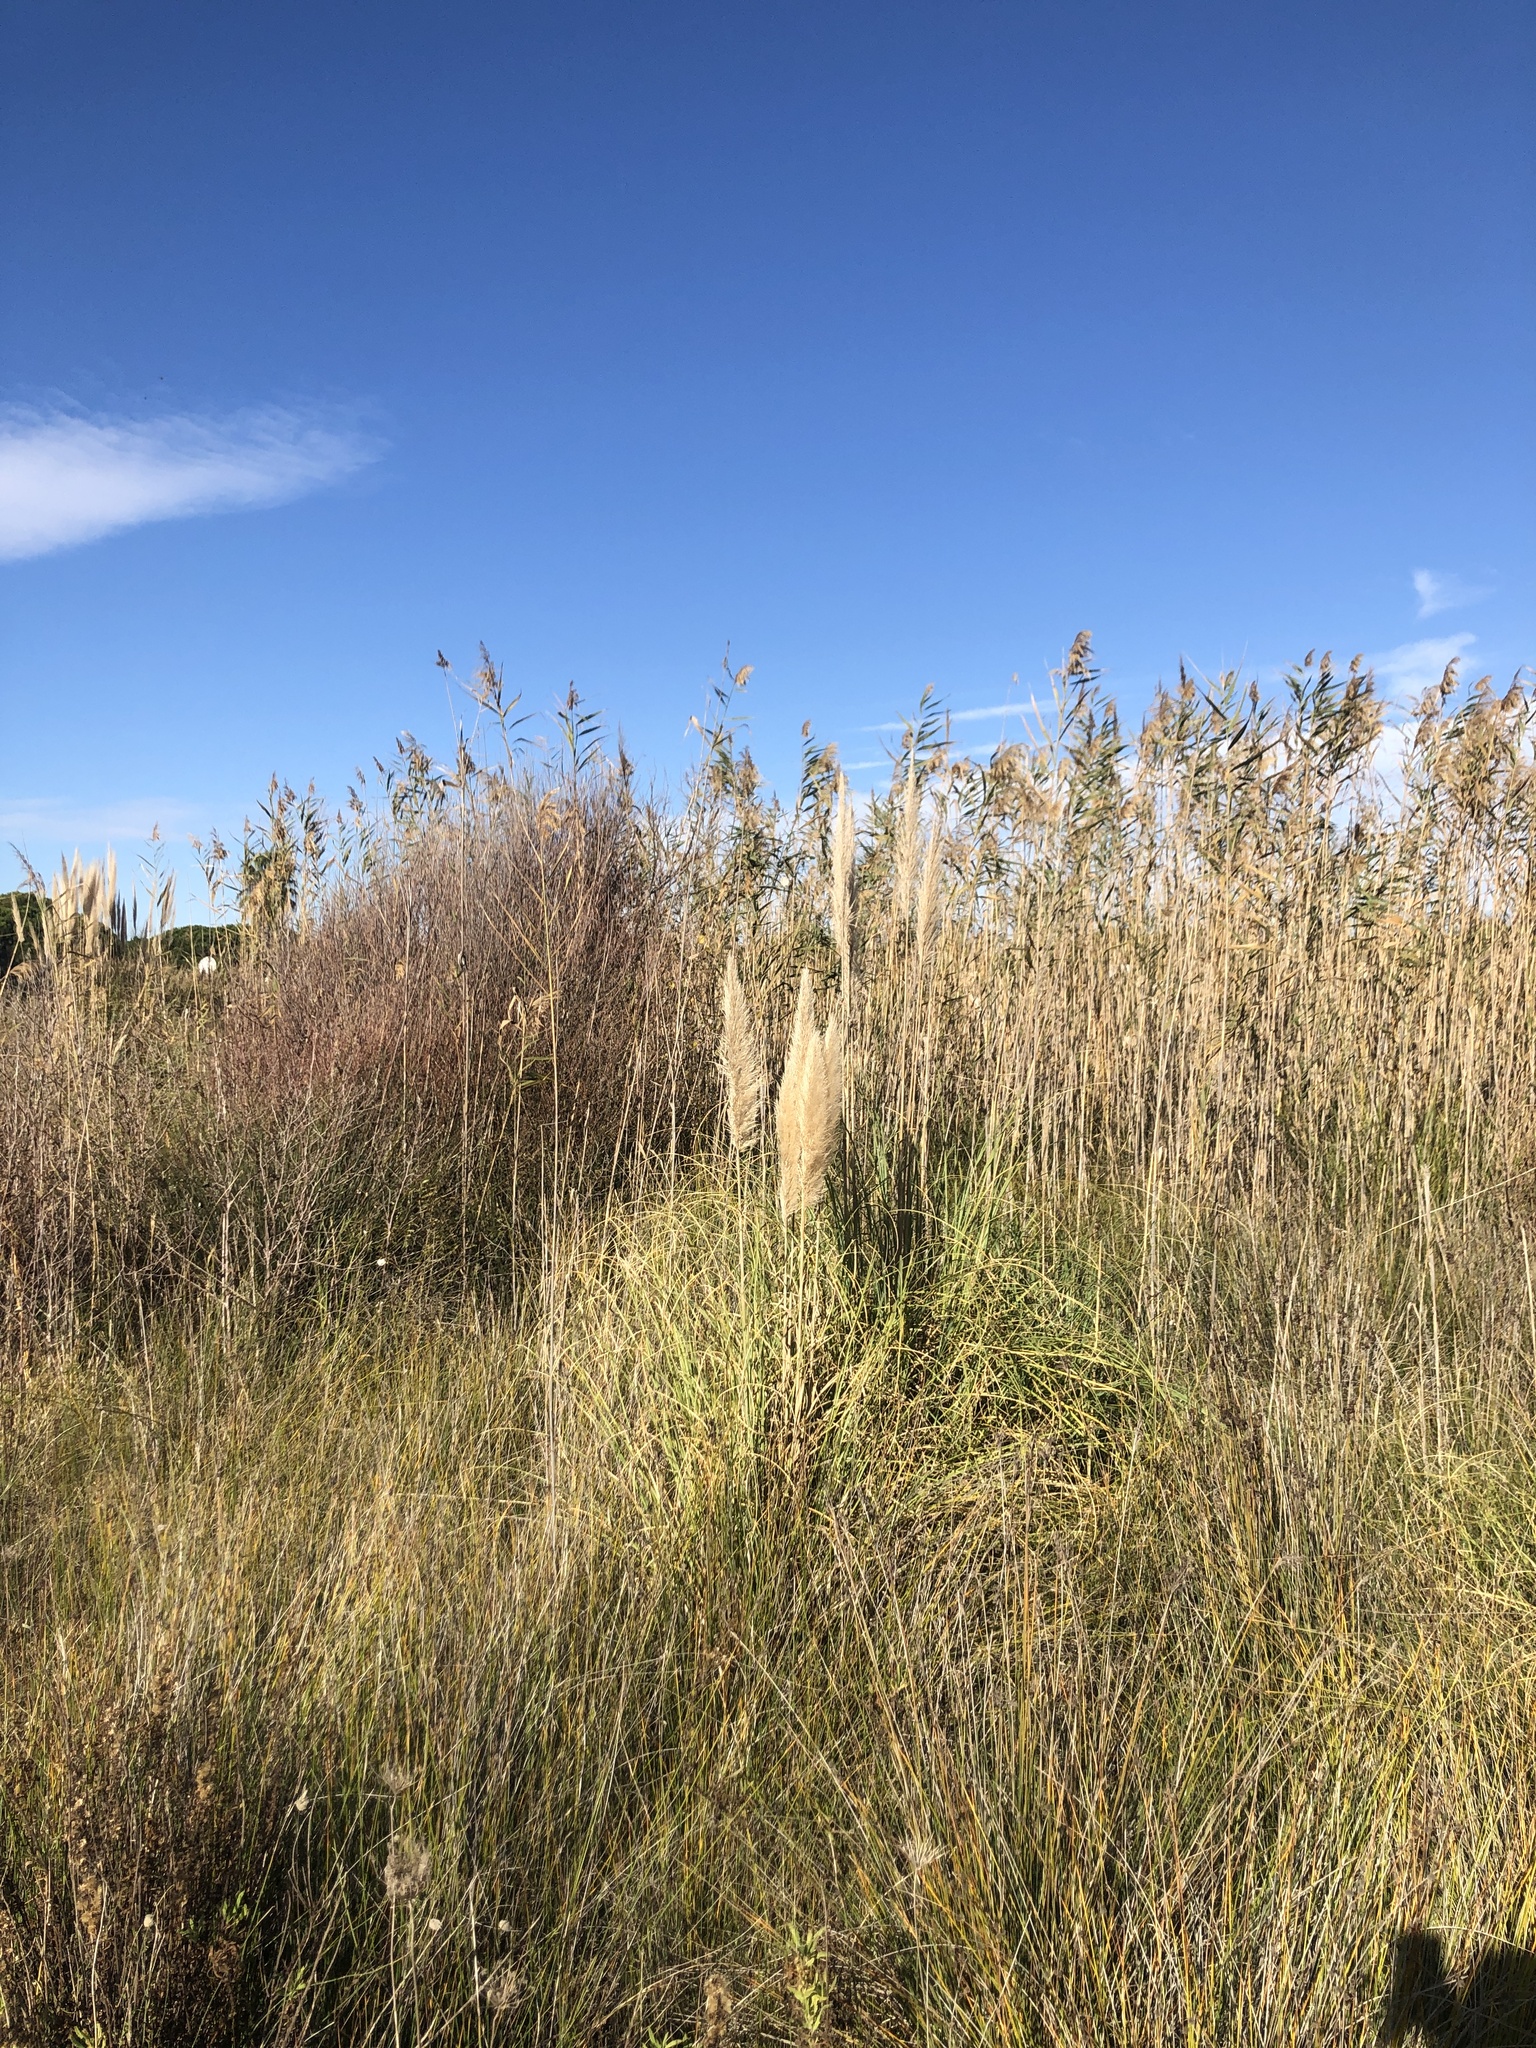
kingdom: Plantae
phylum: Tracheophyta
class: Liliopsida
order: Poales
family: Poaceae
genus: Cortaderia
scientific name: Cortaderia selloana
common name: Uruguayan pampas grass
